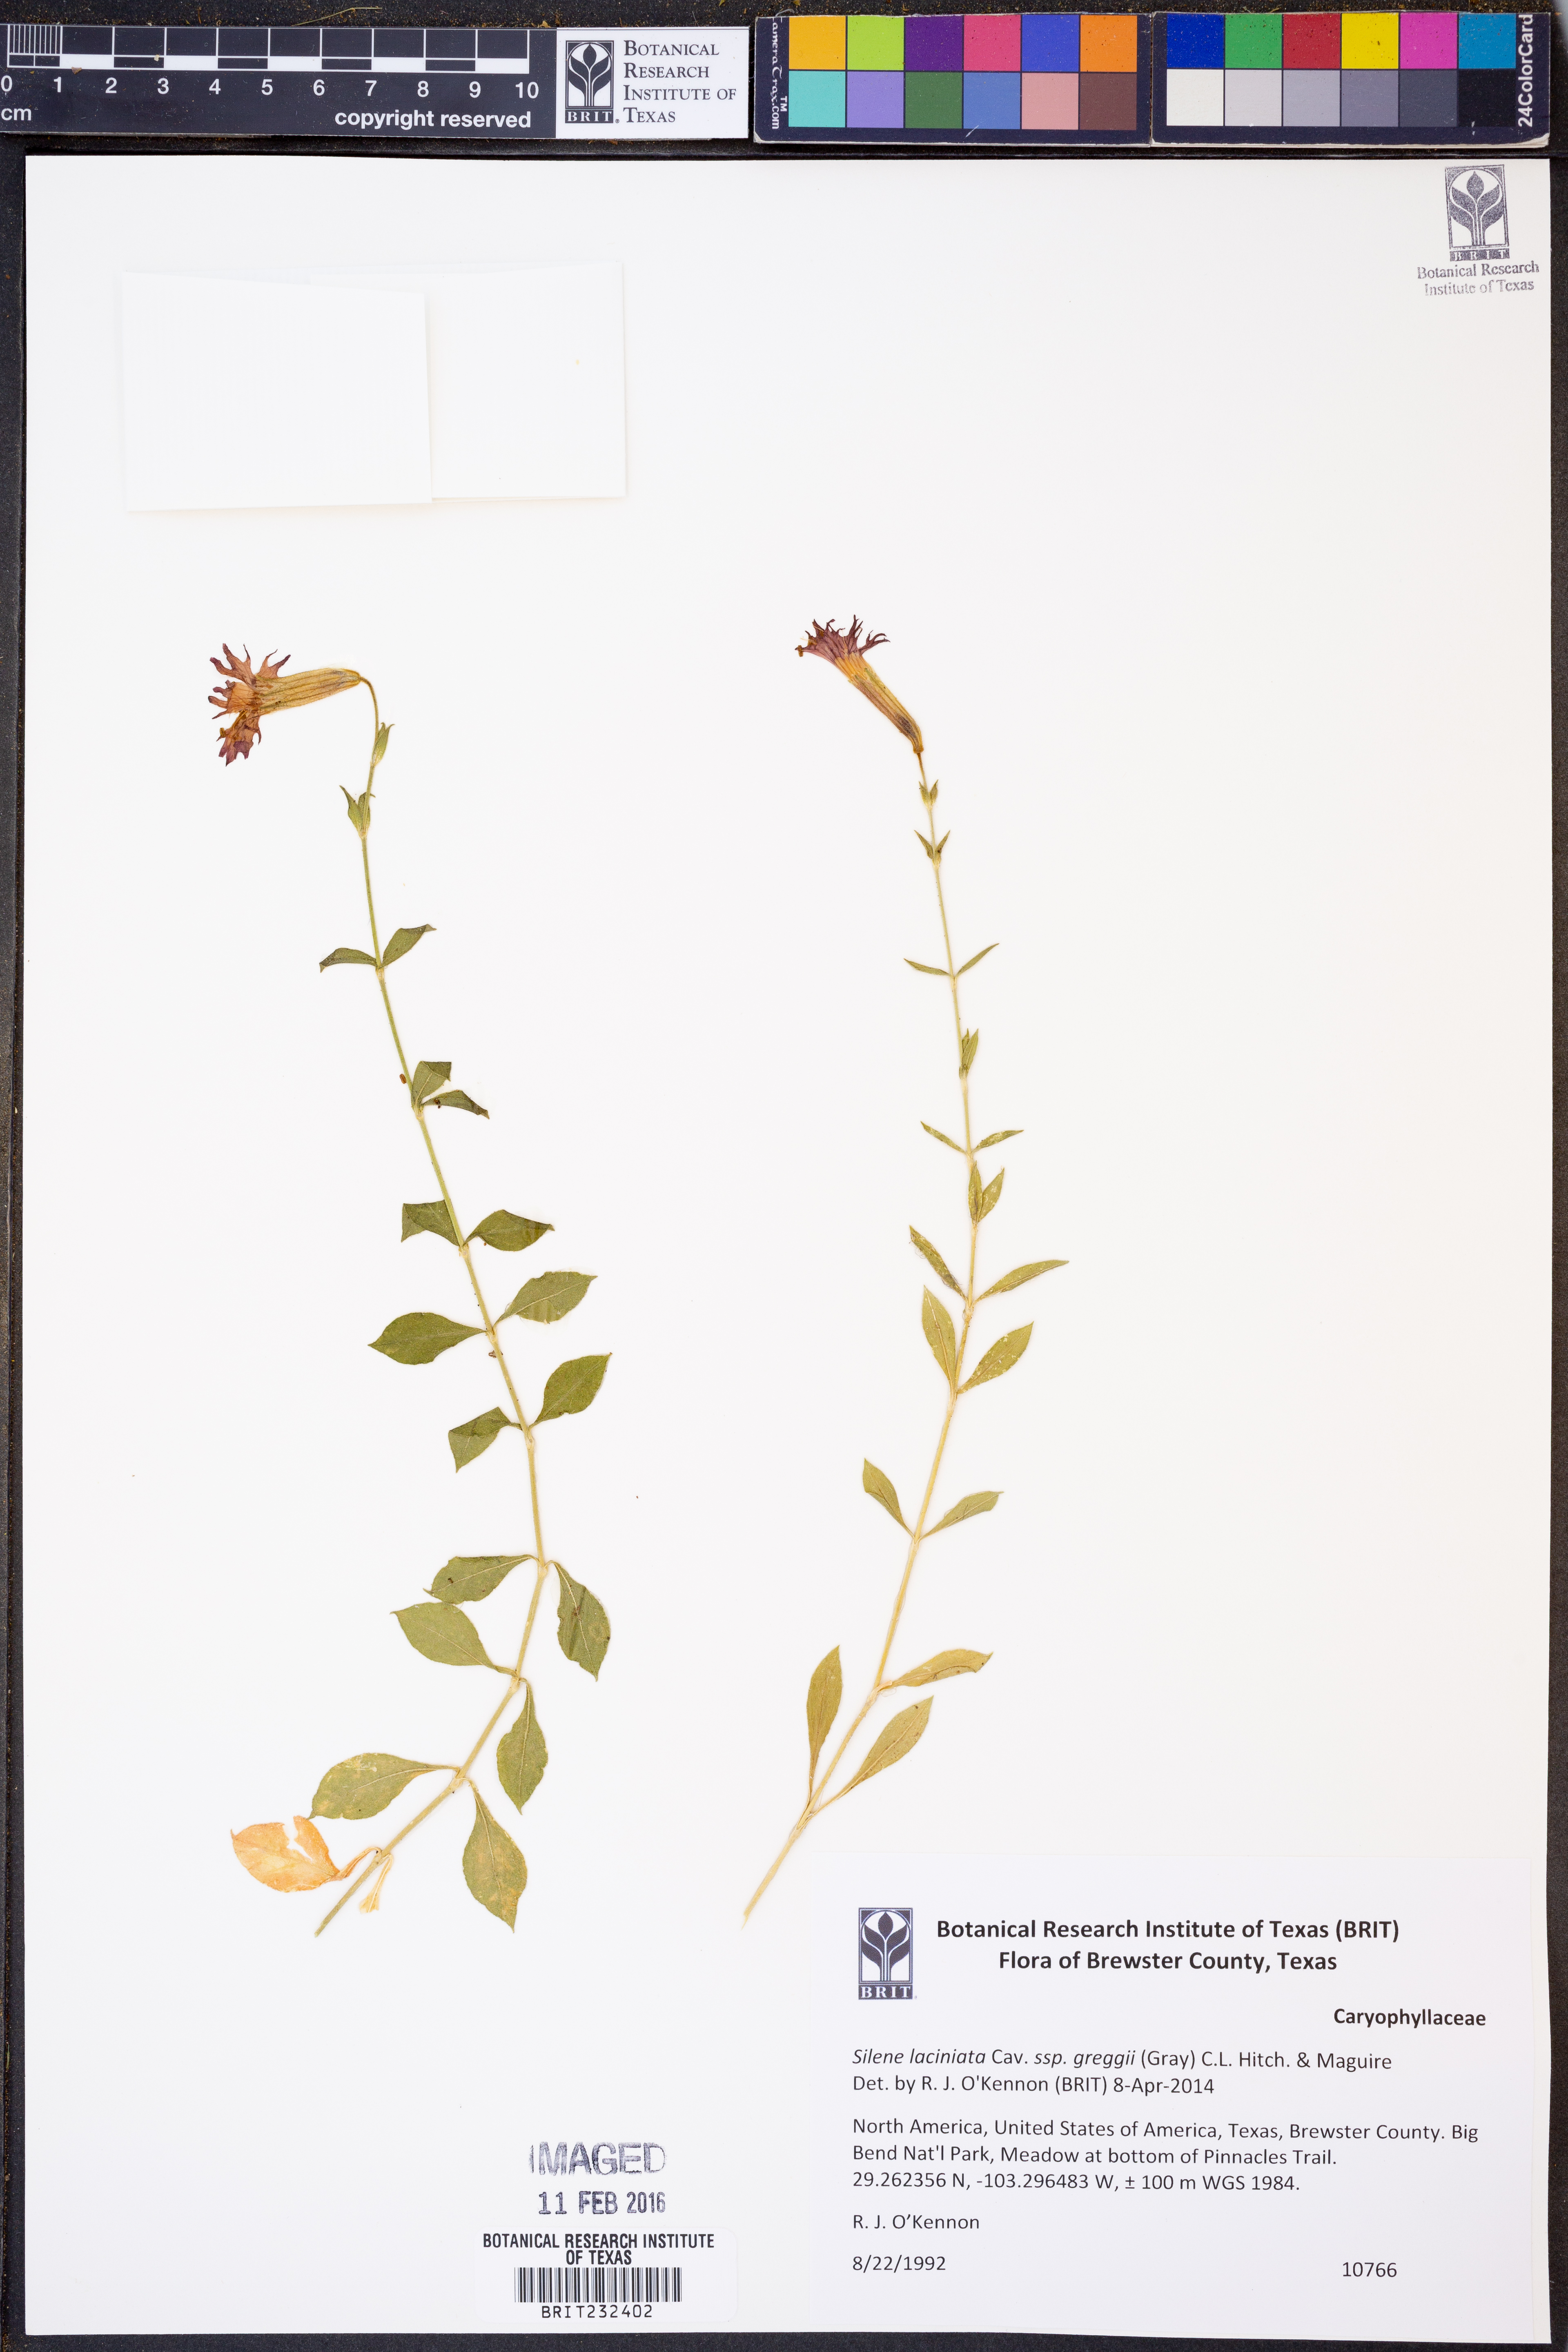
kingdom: Plantae
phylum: Tracheophyta
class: Magnoliopsida
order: Caryophyllales
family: Caryophyllaceae
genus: Silene
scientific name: Silene laciniata
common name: Indian-pink
